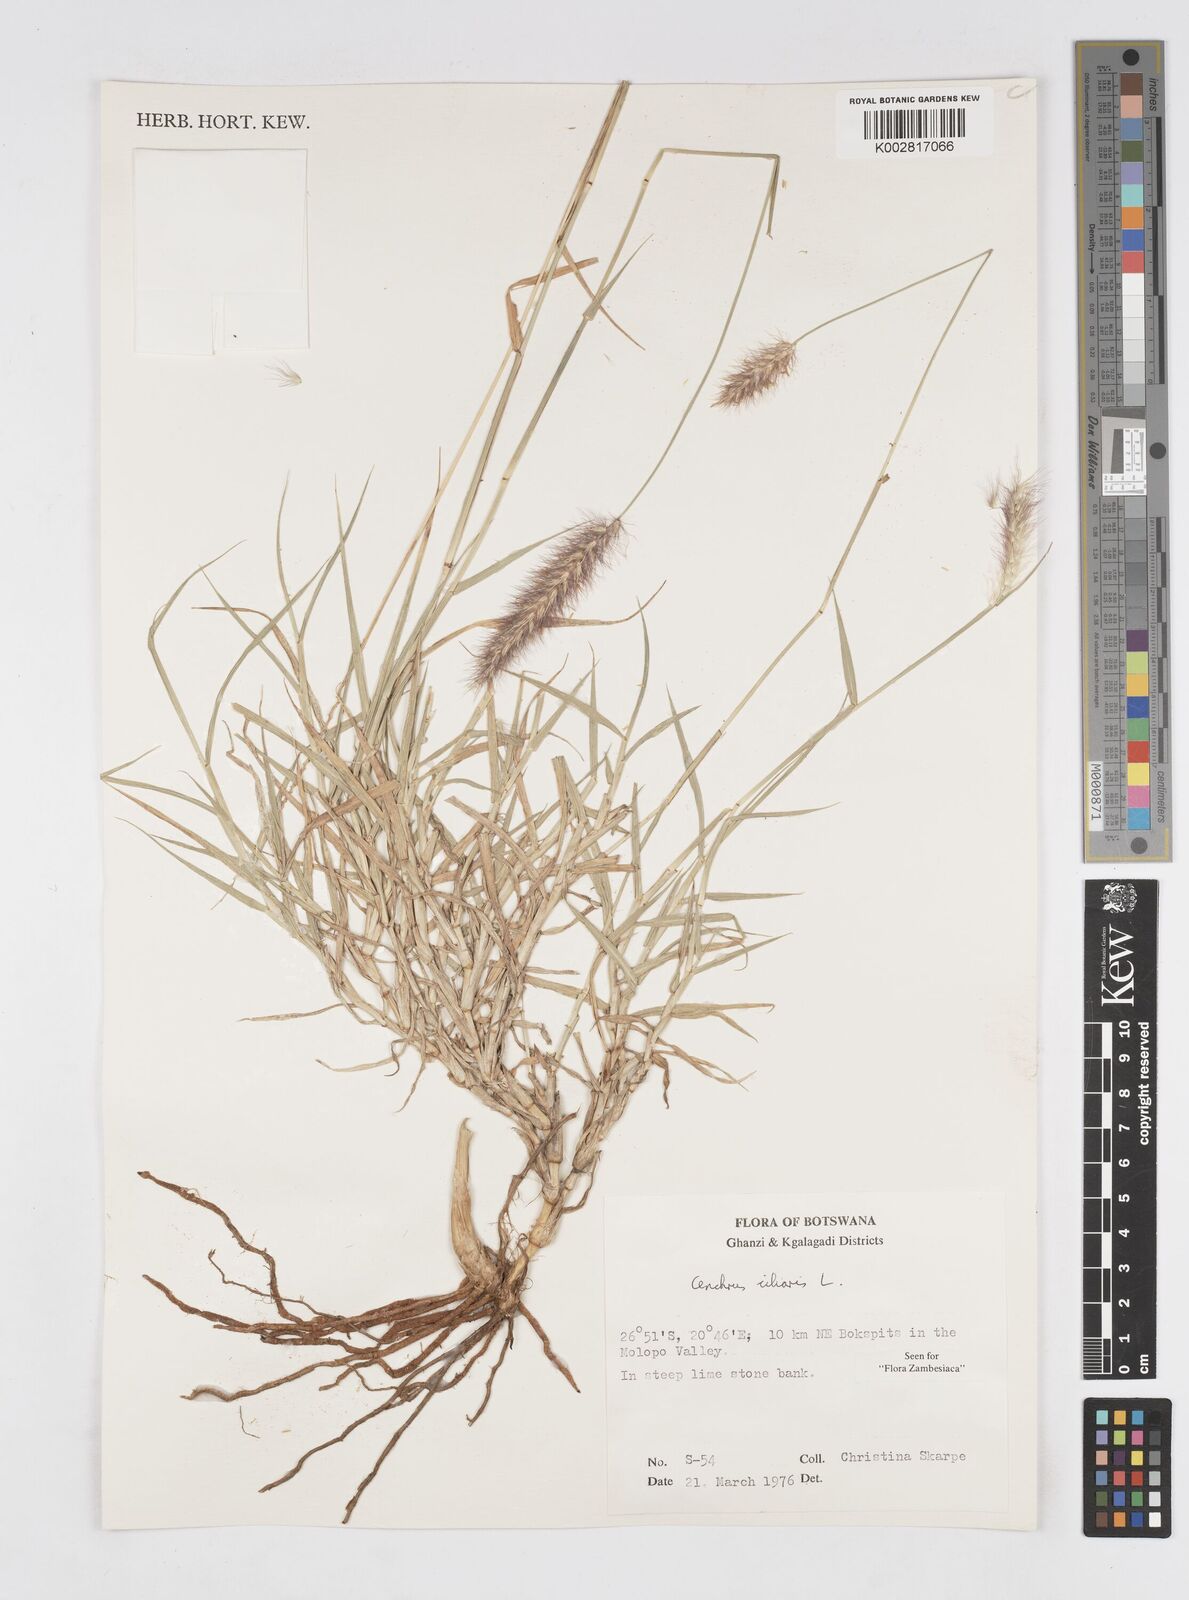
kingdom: Plantae
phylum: Tracheophyta
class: Liliopsida
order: Poales
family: Poaceae
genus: Cenchrus
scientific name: Cenchrus ciliaris
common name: Buffelgrass
